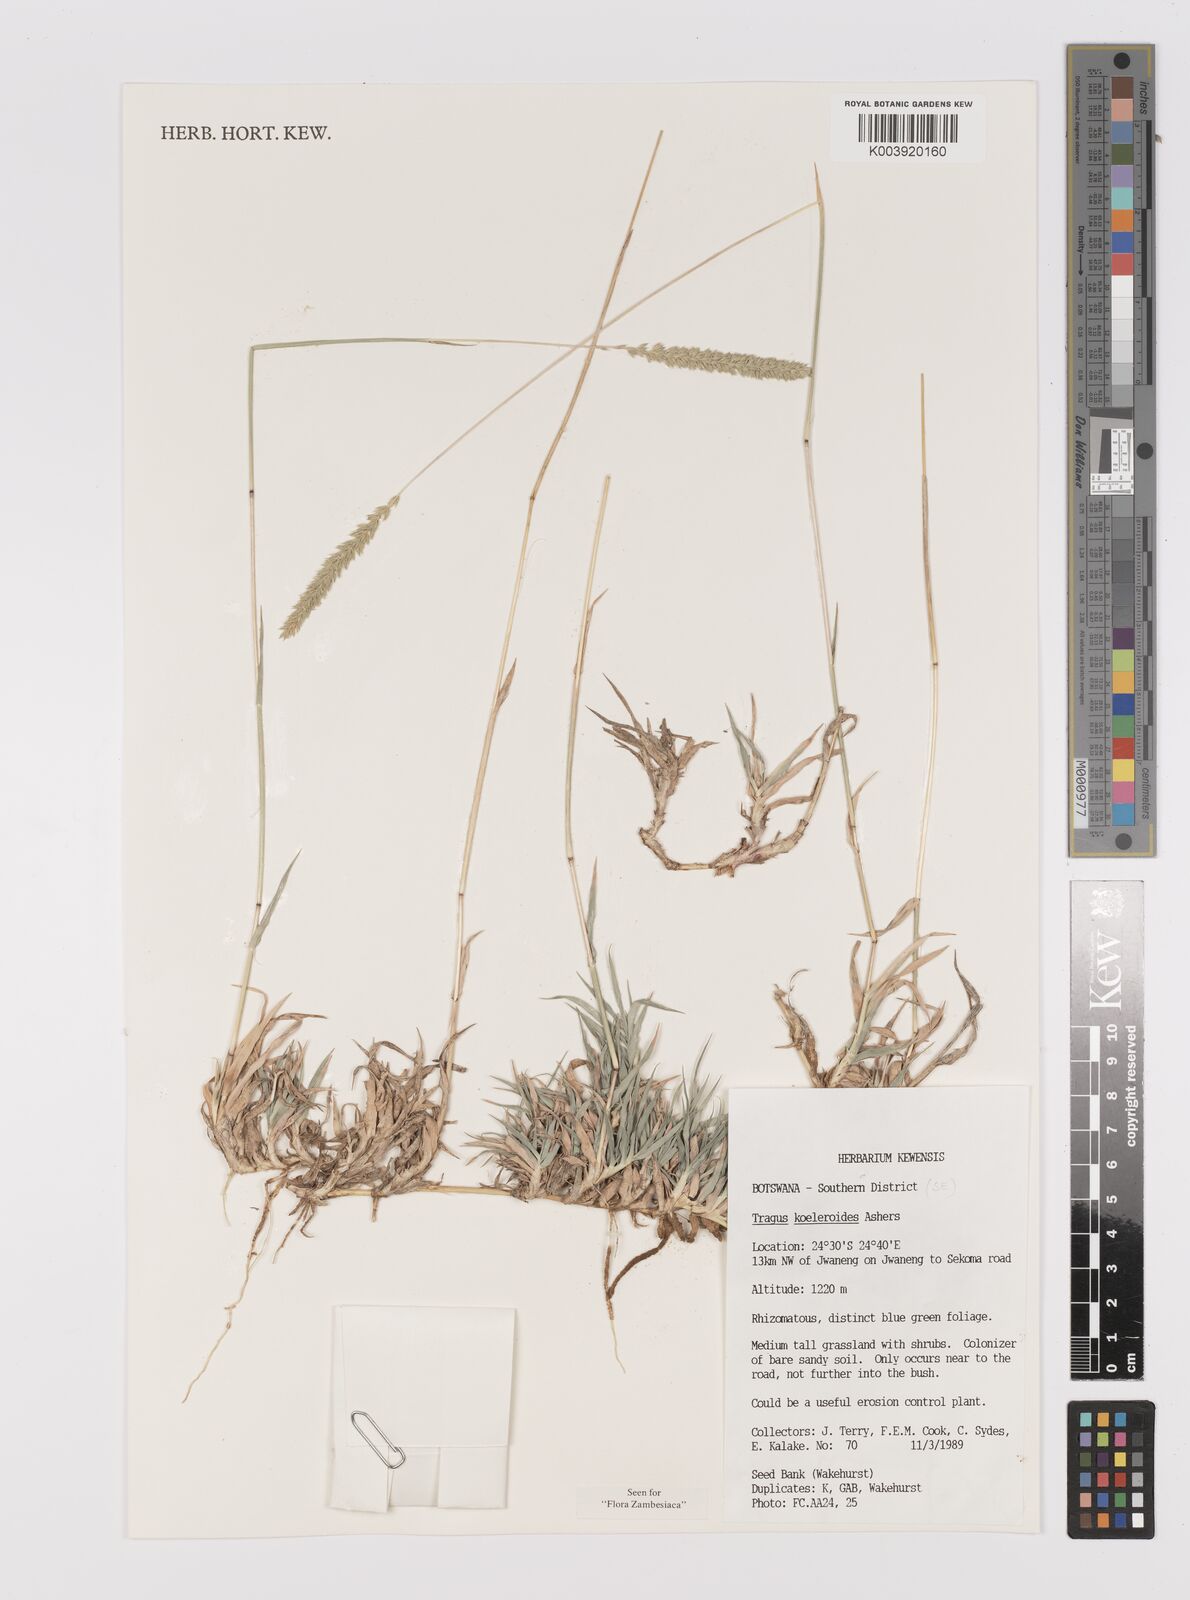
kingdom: Plantae
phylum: Tracheophyta
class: Liliopsida
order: Poales
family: Poaceae
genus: Tragus
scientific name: Tragus koelerioides
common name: Creeping carrot-seed grass
